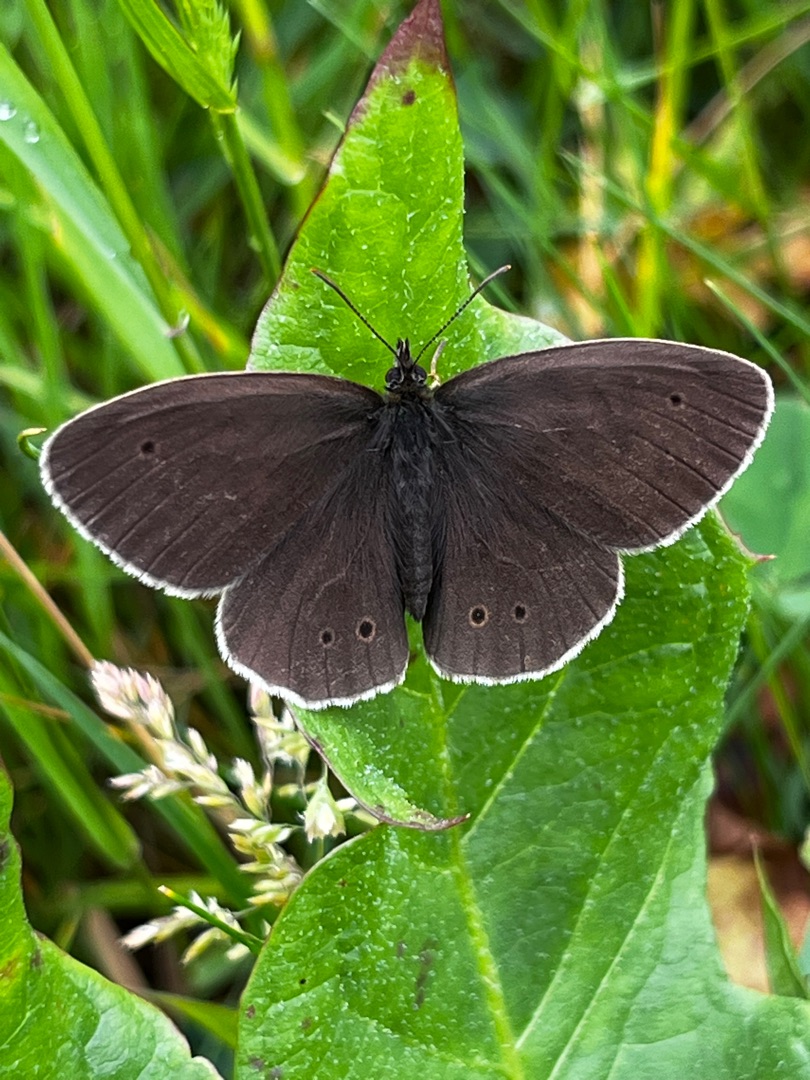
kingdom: Animalia
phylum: Arthropoda
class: Insecta
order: Lepidoptera
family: Nymphalidae
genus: Aphantopus
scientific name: Aphantopus hyperantus
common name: Engrandøje
